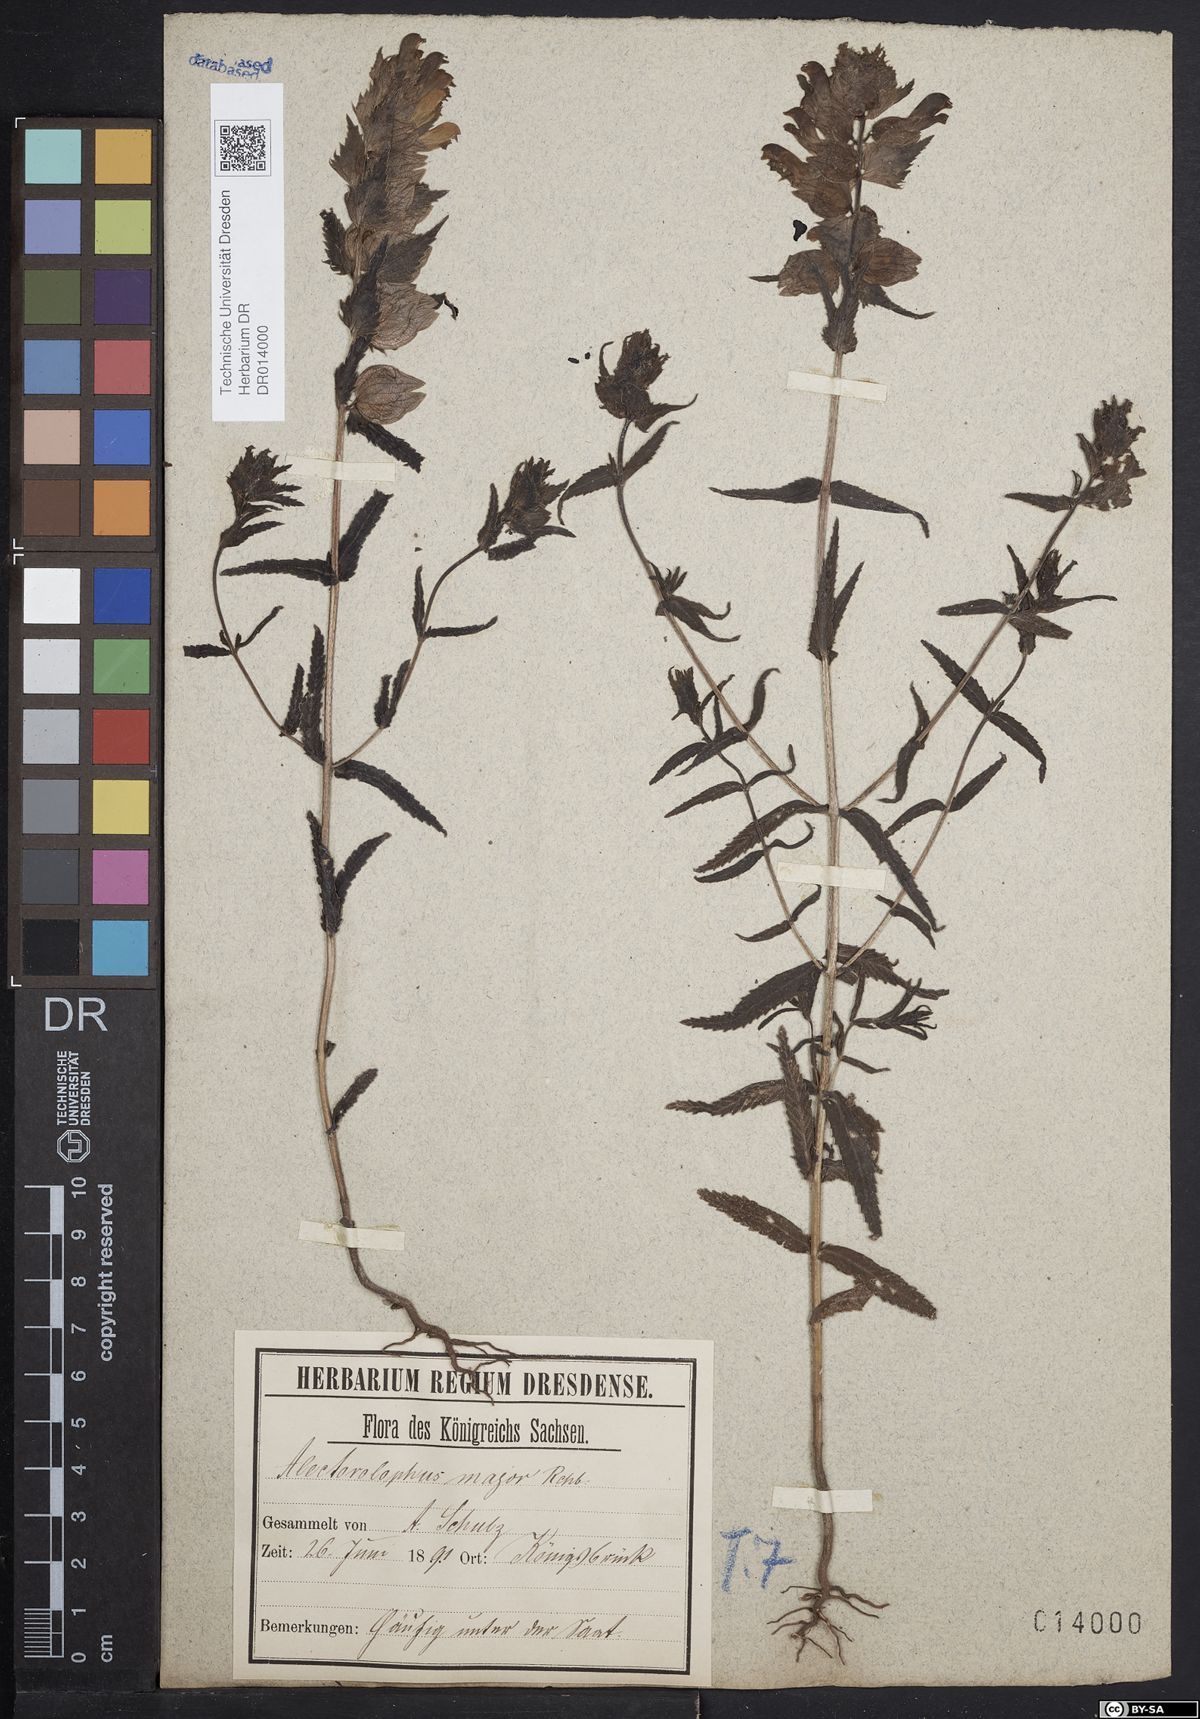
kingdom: Plantae
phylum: Tracheophyta
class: Magnoliopsida
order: Lamiales
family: Orobanchaceae
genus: Rhinanthus
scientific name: Rhinanthus serotinus
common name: Late-flowering yellow rattle
